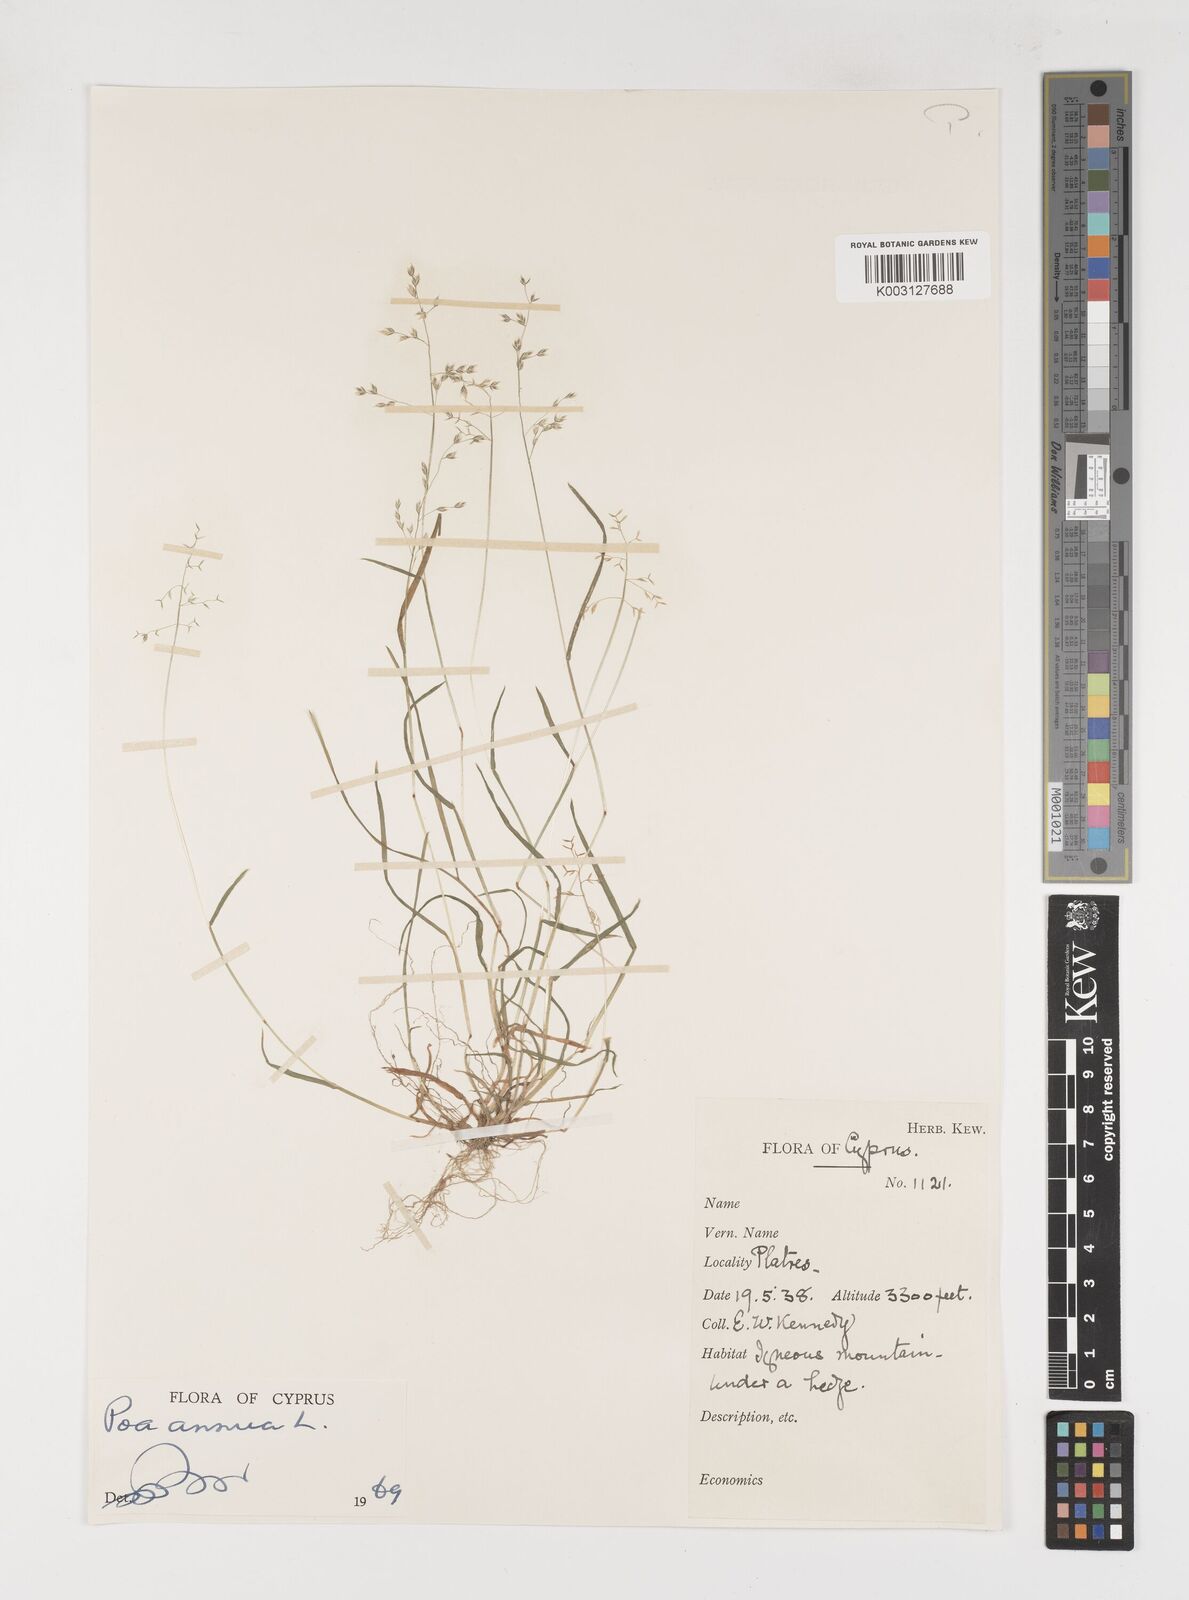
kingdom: Plantae
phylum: Tracheophyta
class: Liliopsida
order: Poales
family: Poaceae
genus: Poa
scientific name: Poa annua
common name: Annual bluegrass
